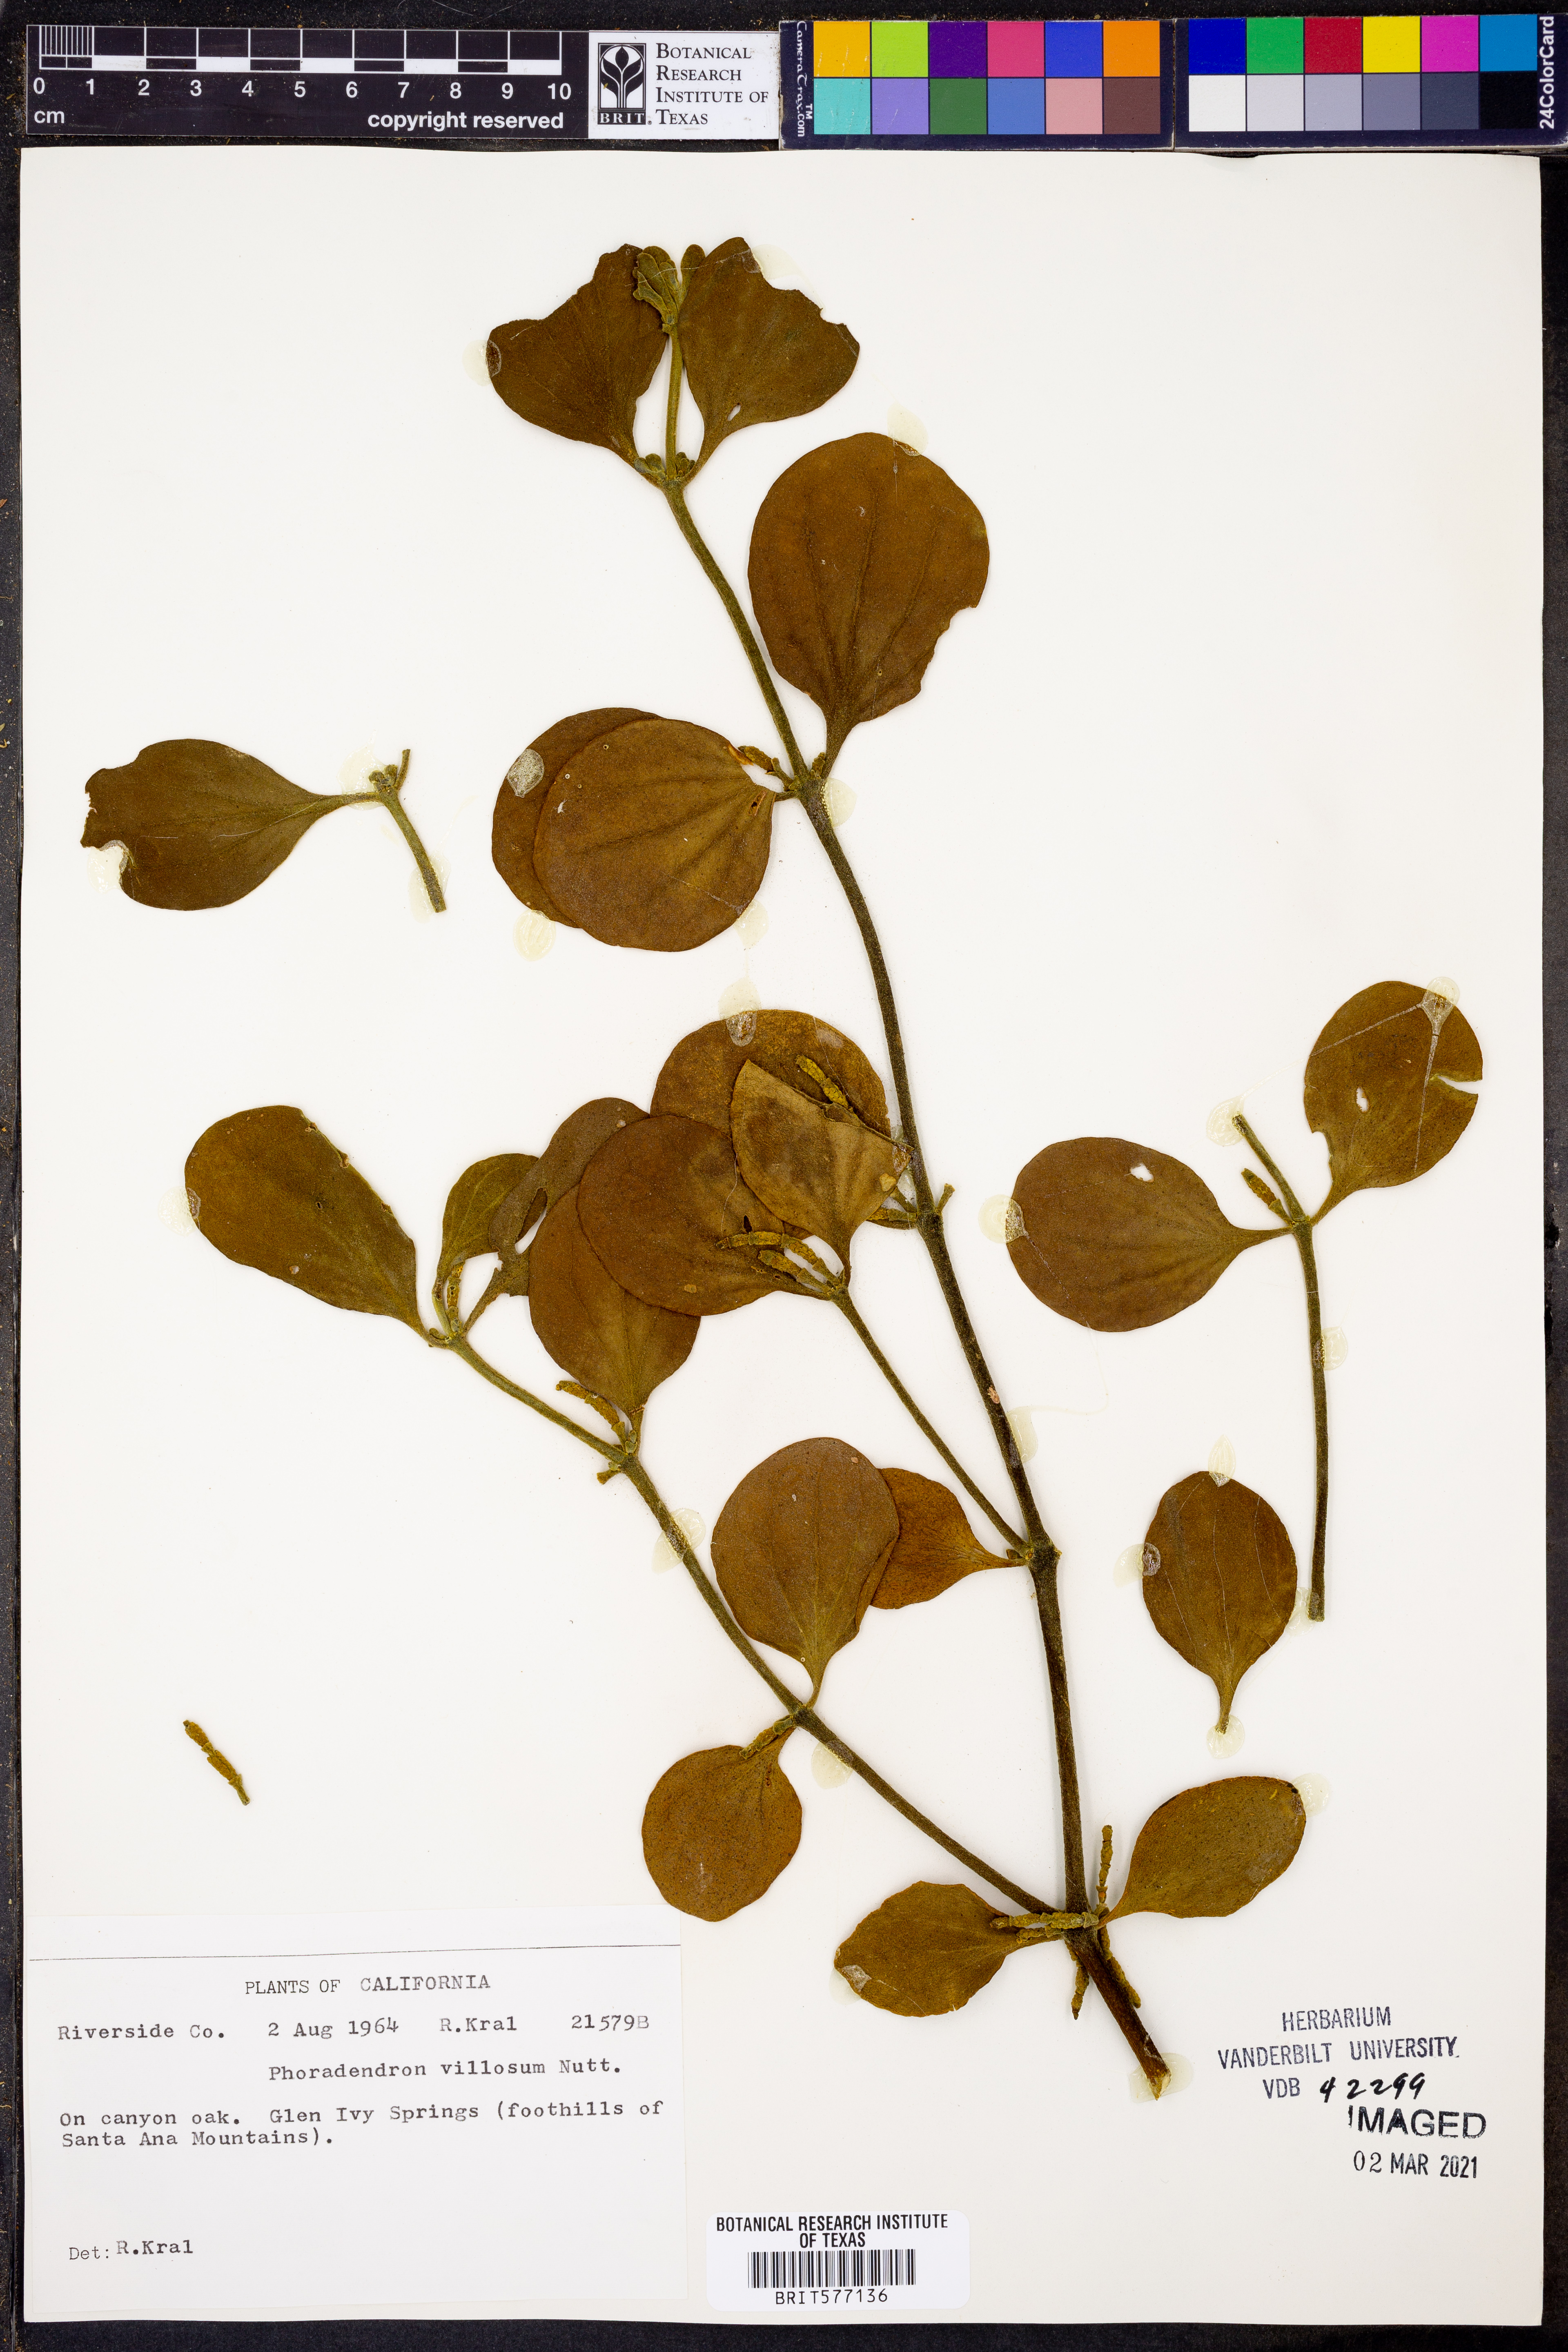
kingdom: Plantae
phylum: Tracheophyta
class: Magnoliopsida
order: Santalales
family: Viscaceae
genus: Phoradendron
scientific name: Phoradendron leucarpum
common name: Pacific mistletoe
